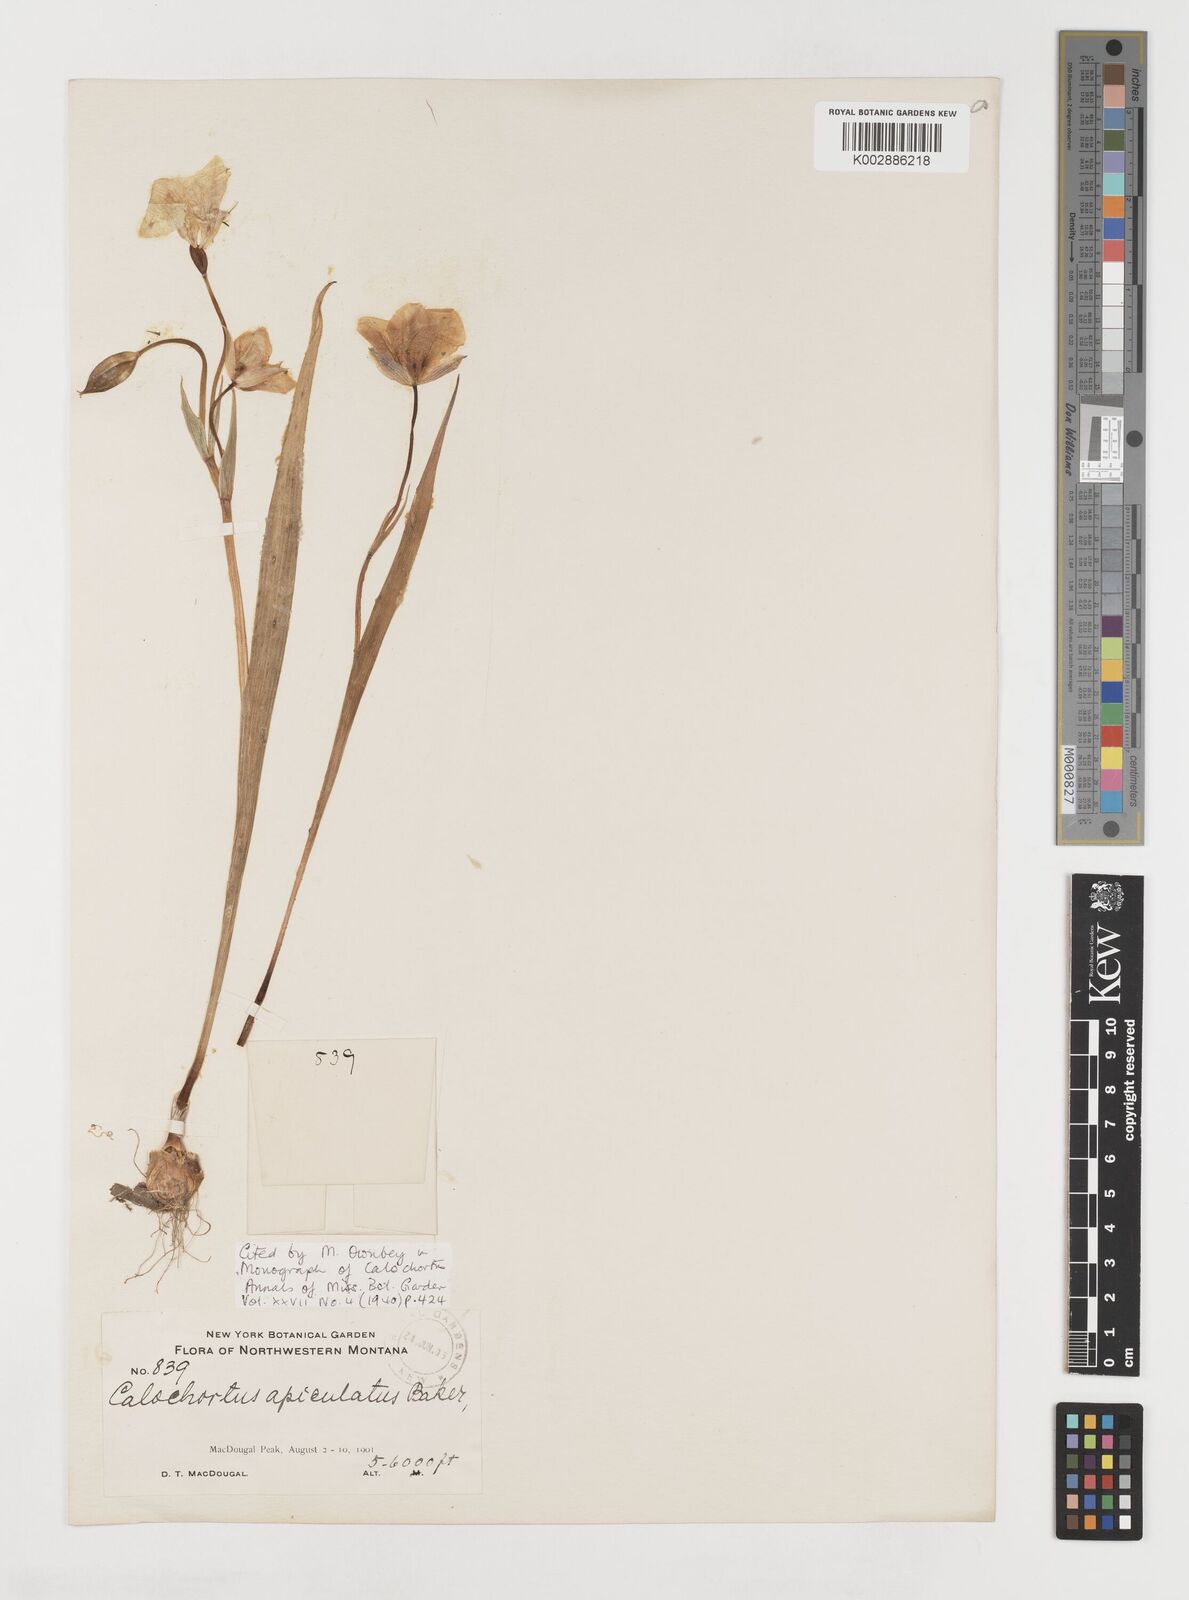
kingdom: Plantae
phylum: Tracheophyta
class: Liliopsida
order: Liliales
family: Liliaceae
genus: Calochortus
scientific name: Calochortus apiculatus
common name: Baker's mariposa lily
